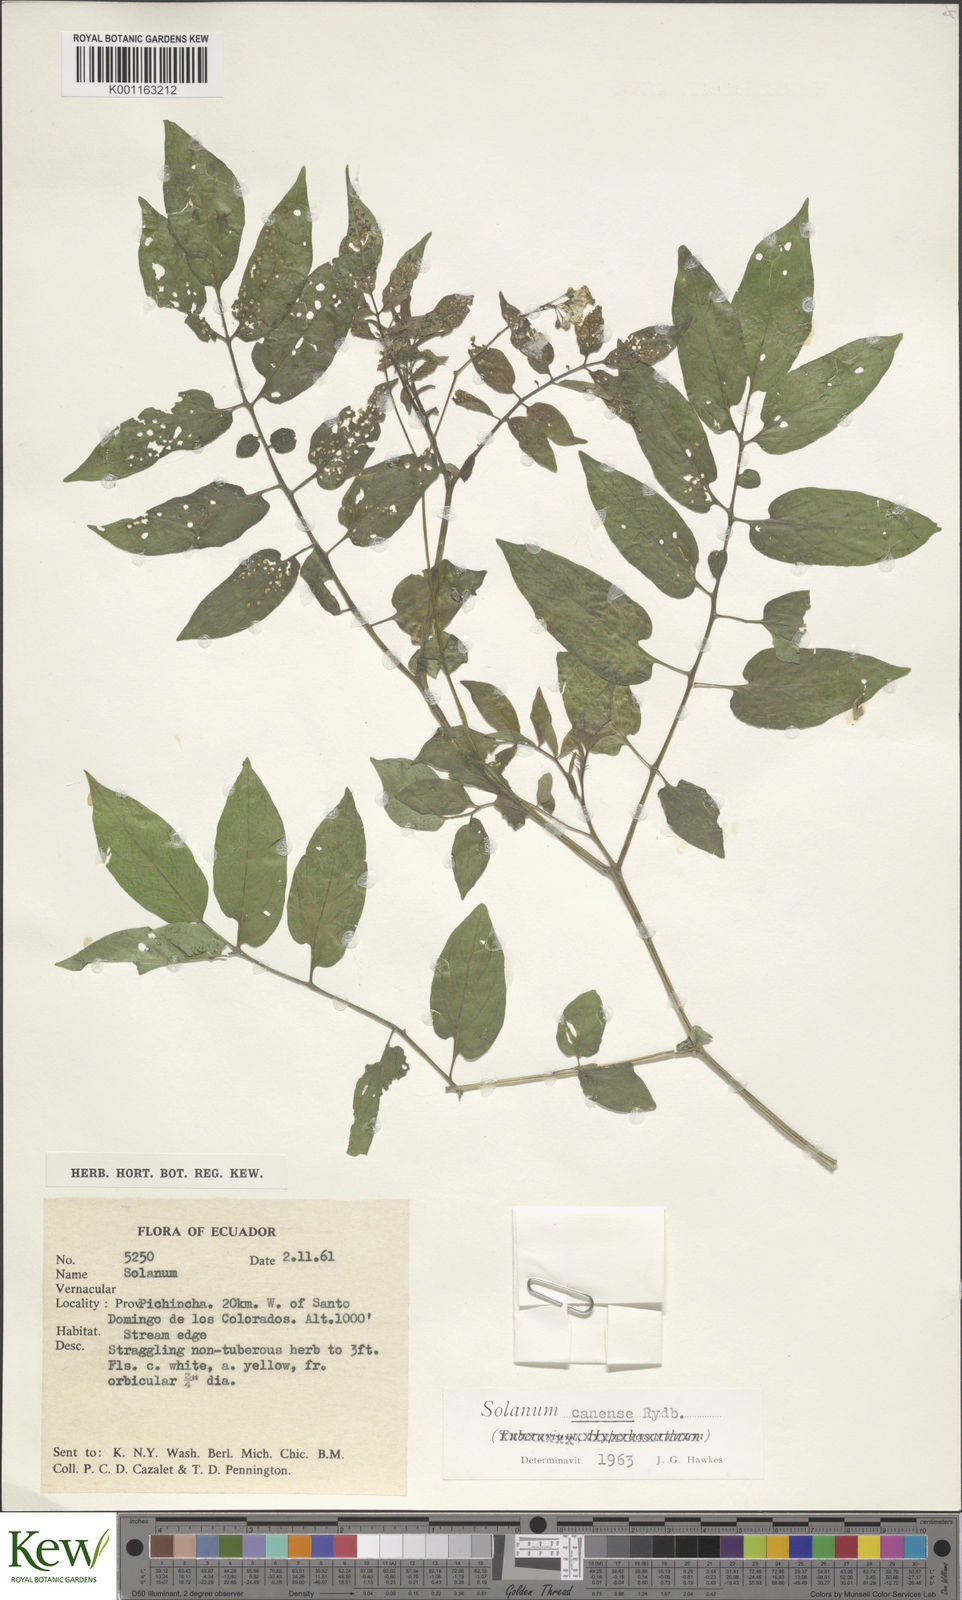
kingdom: Plantae
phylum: Tracheophyta
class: Magnoliopsida
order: Solanales
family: Solanaceae
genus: Solanum
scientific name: Solanum canense
